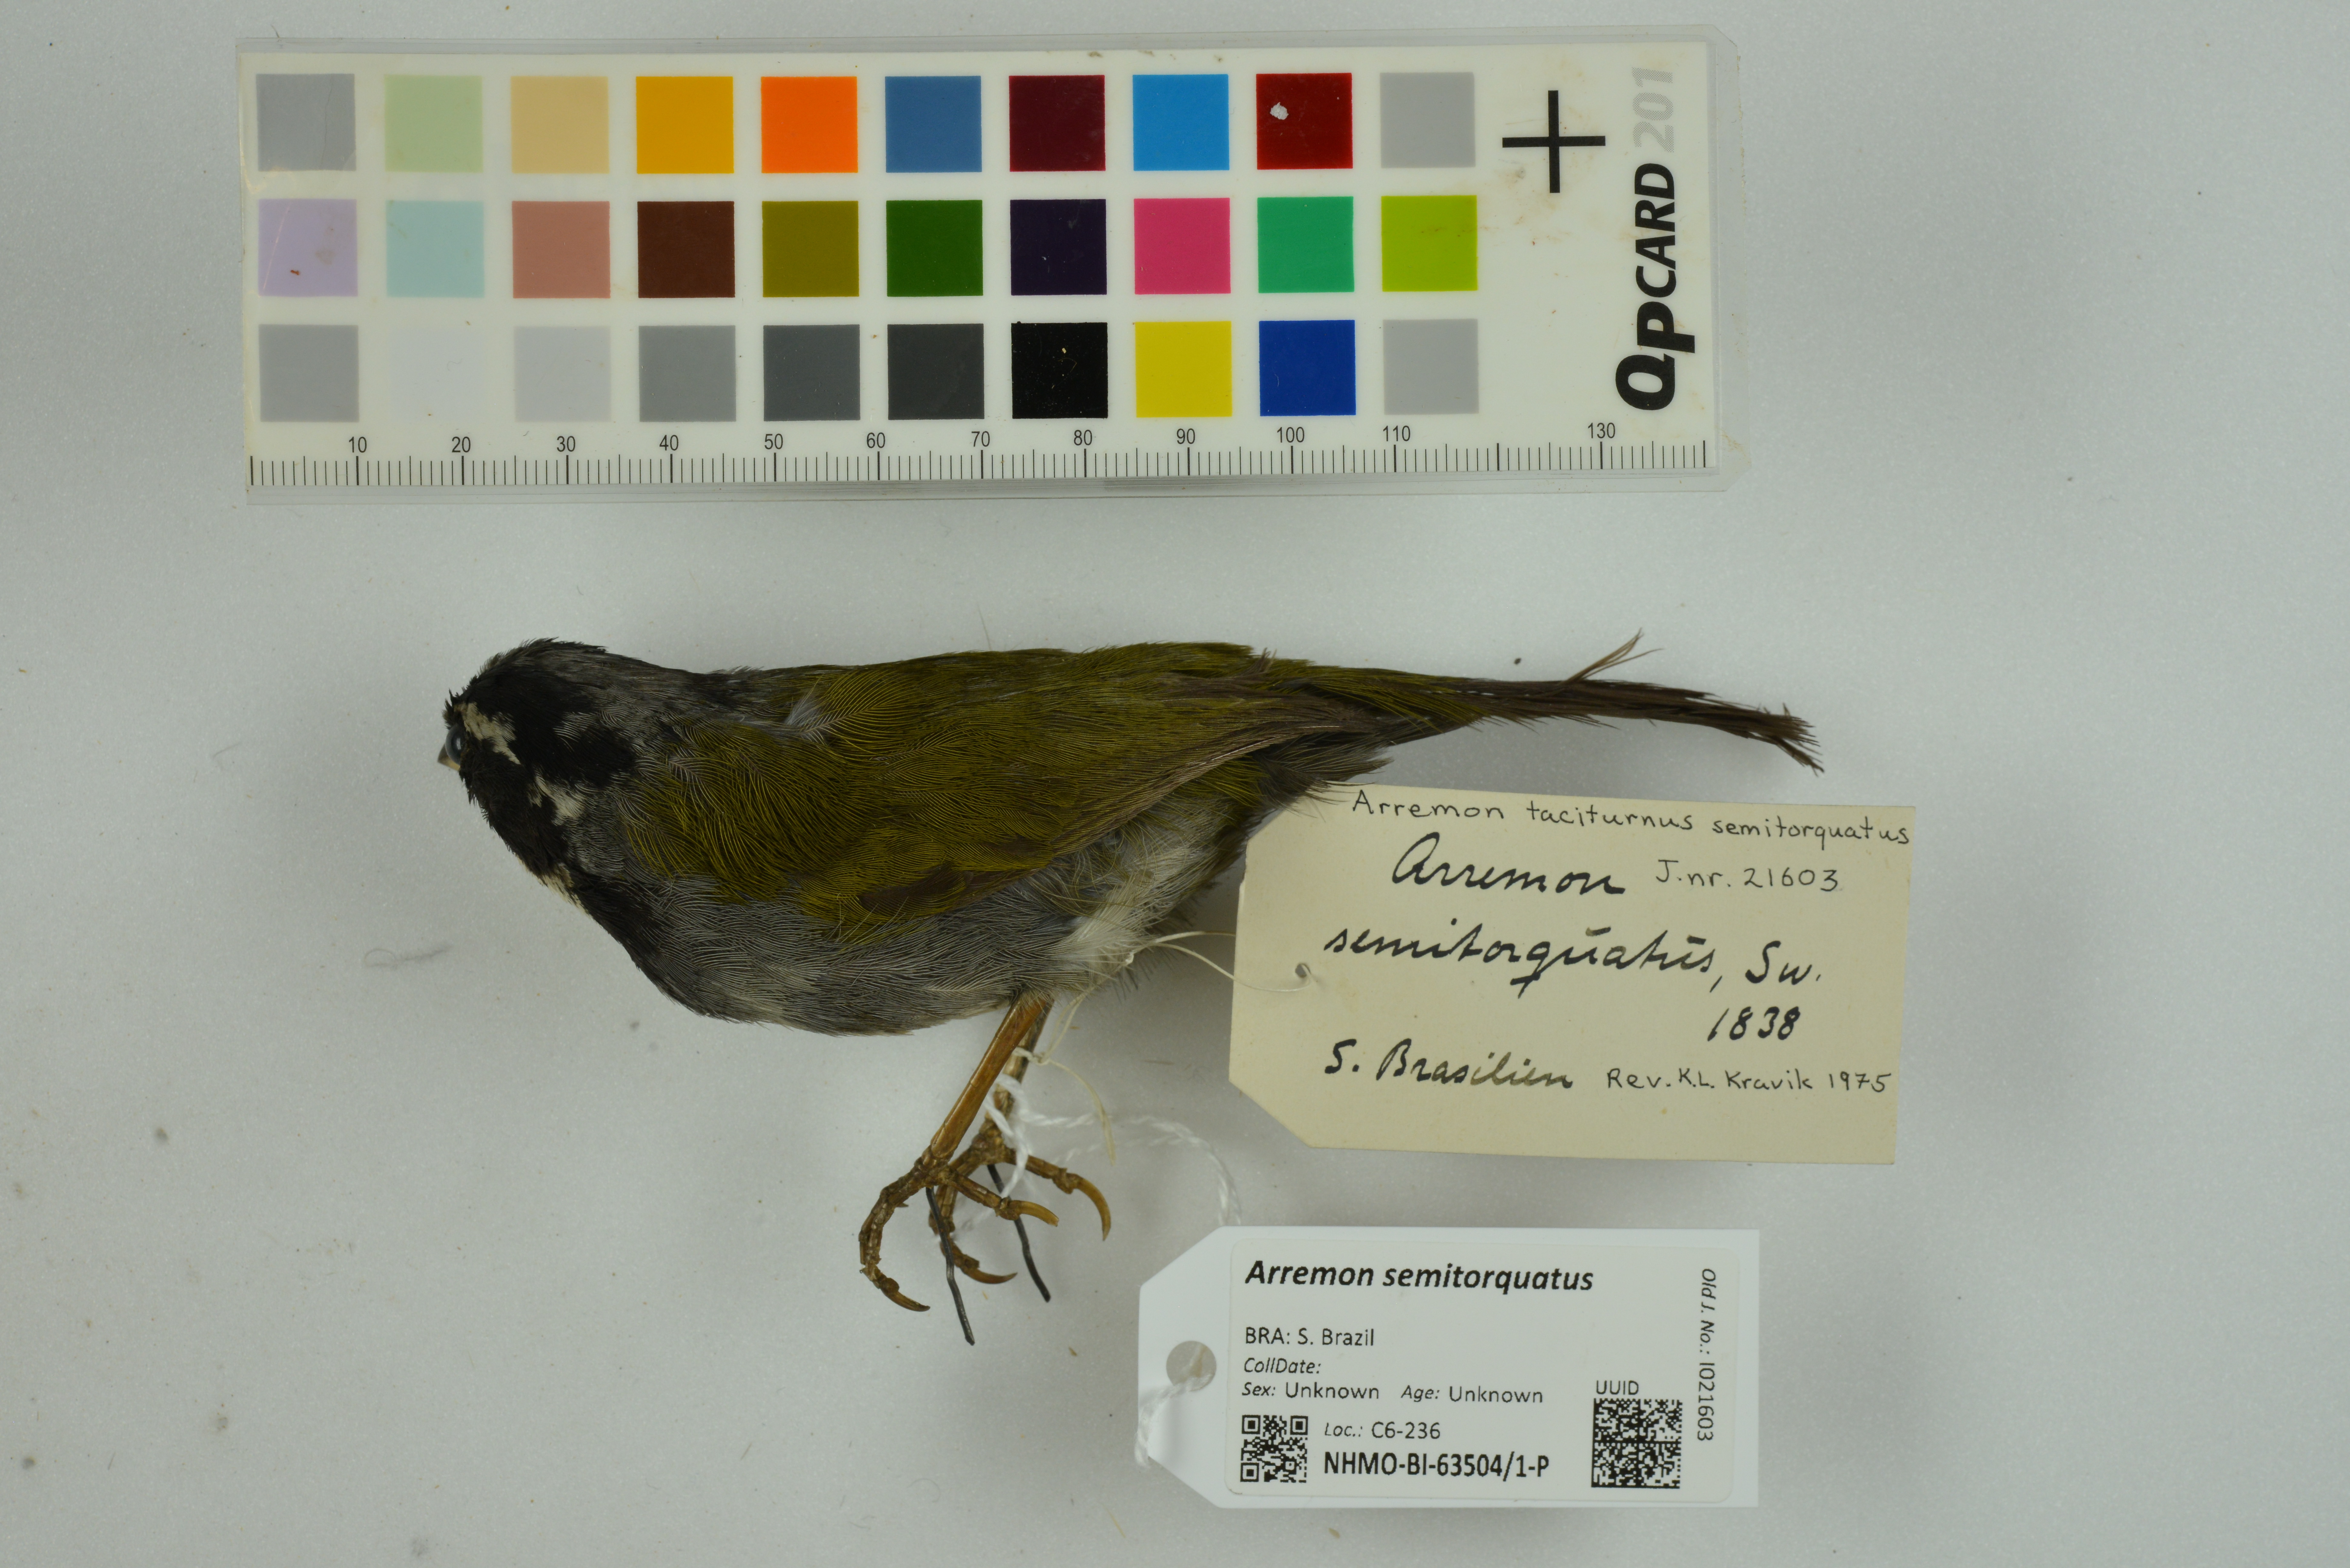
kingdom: Animalia
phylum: Chordata
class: Aves
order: Passeriformes
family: Passerellidae
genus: Arremon
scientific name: Arremon semitorquatus
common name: Half-collared sparrow
